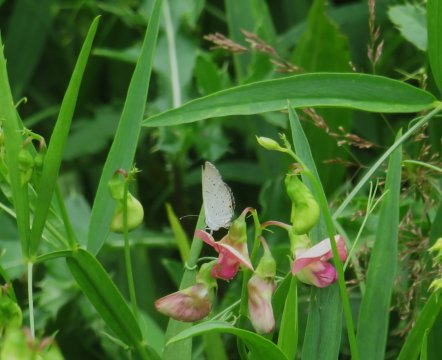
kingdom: Animalia
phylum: Arthropoda
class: Insecta
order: Lepidoptera
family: Lycaenidae
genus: Cyaniris
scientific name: Cyaniris neglecta
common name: Summer Azure
